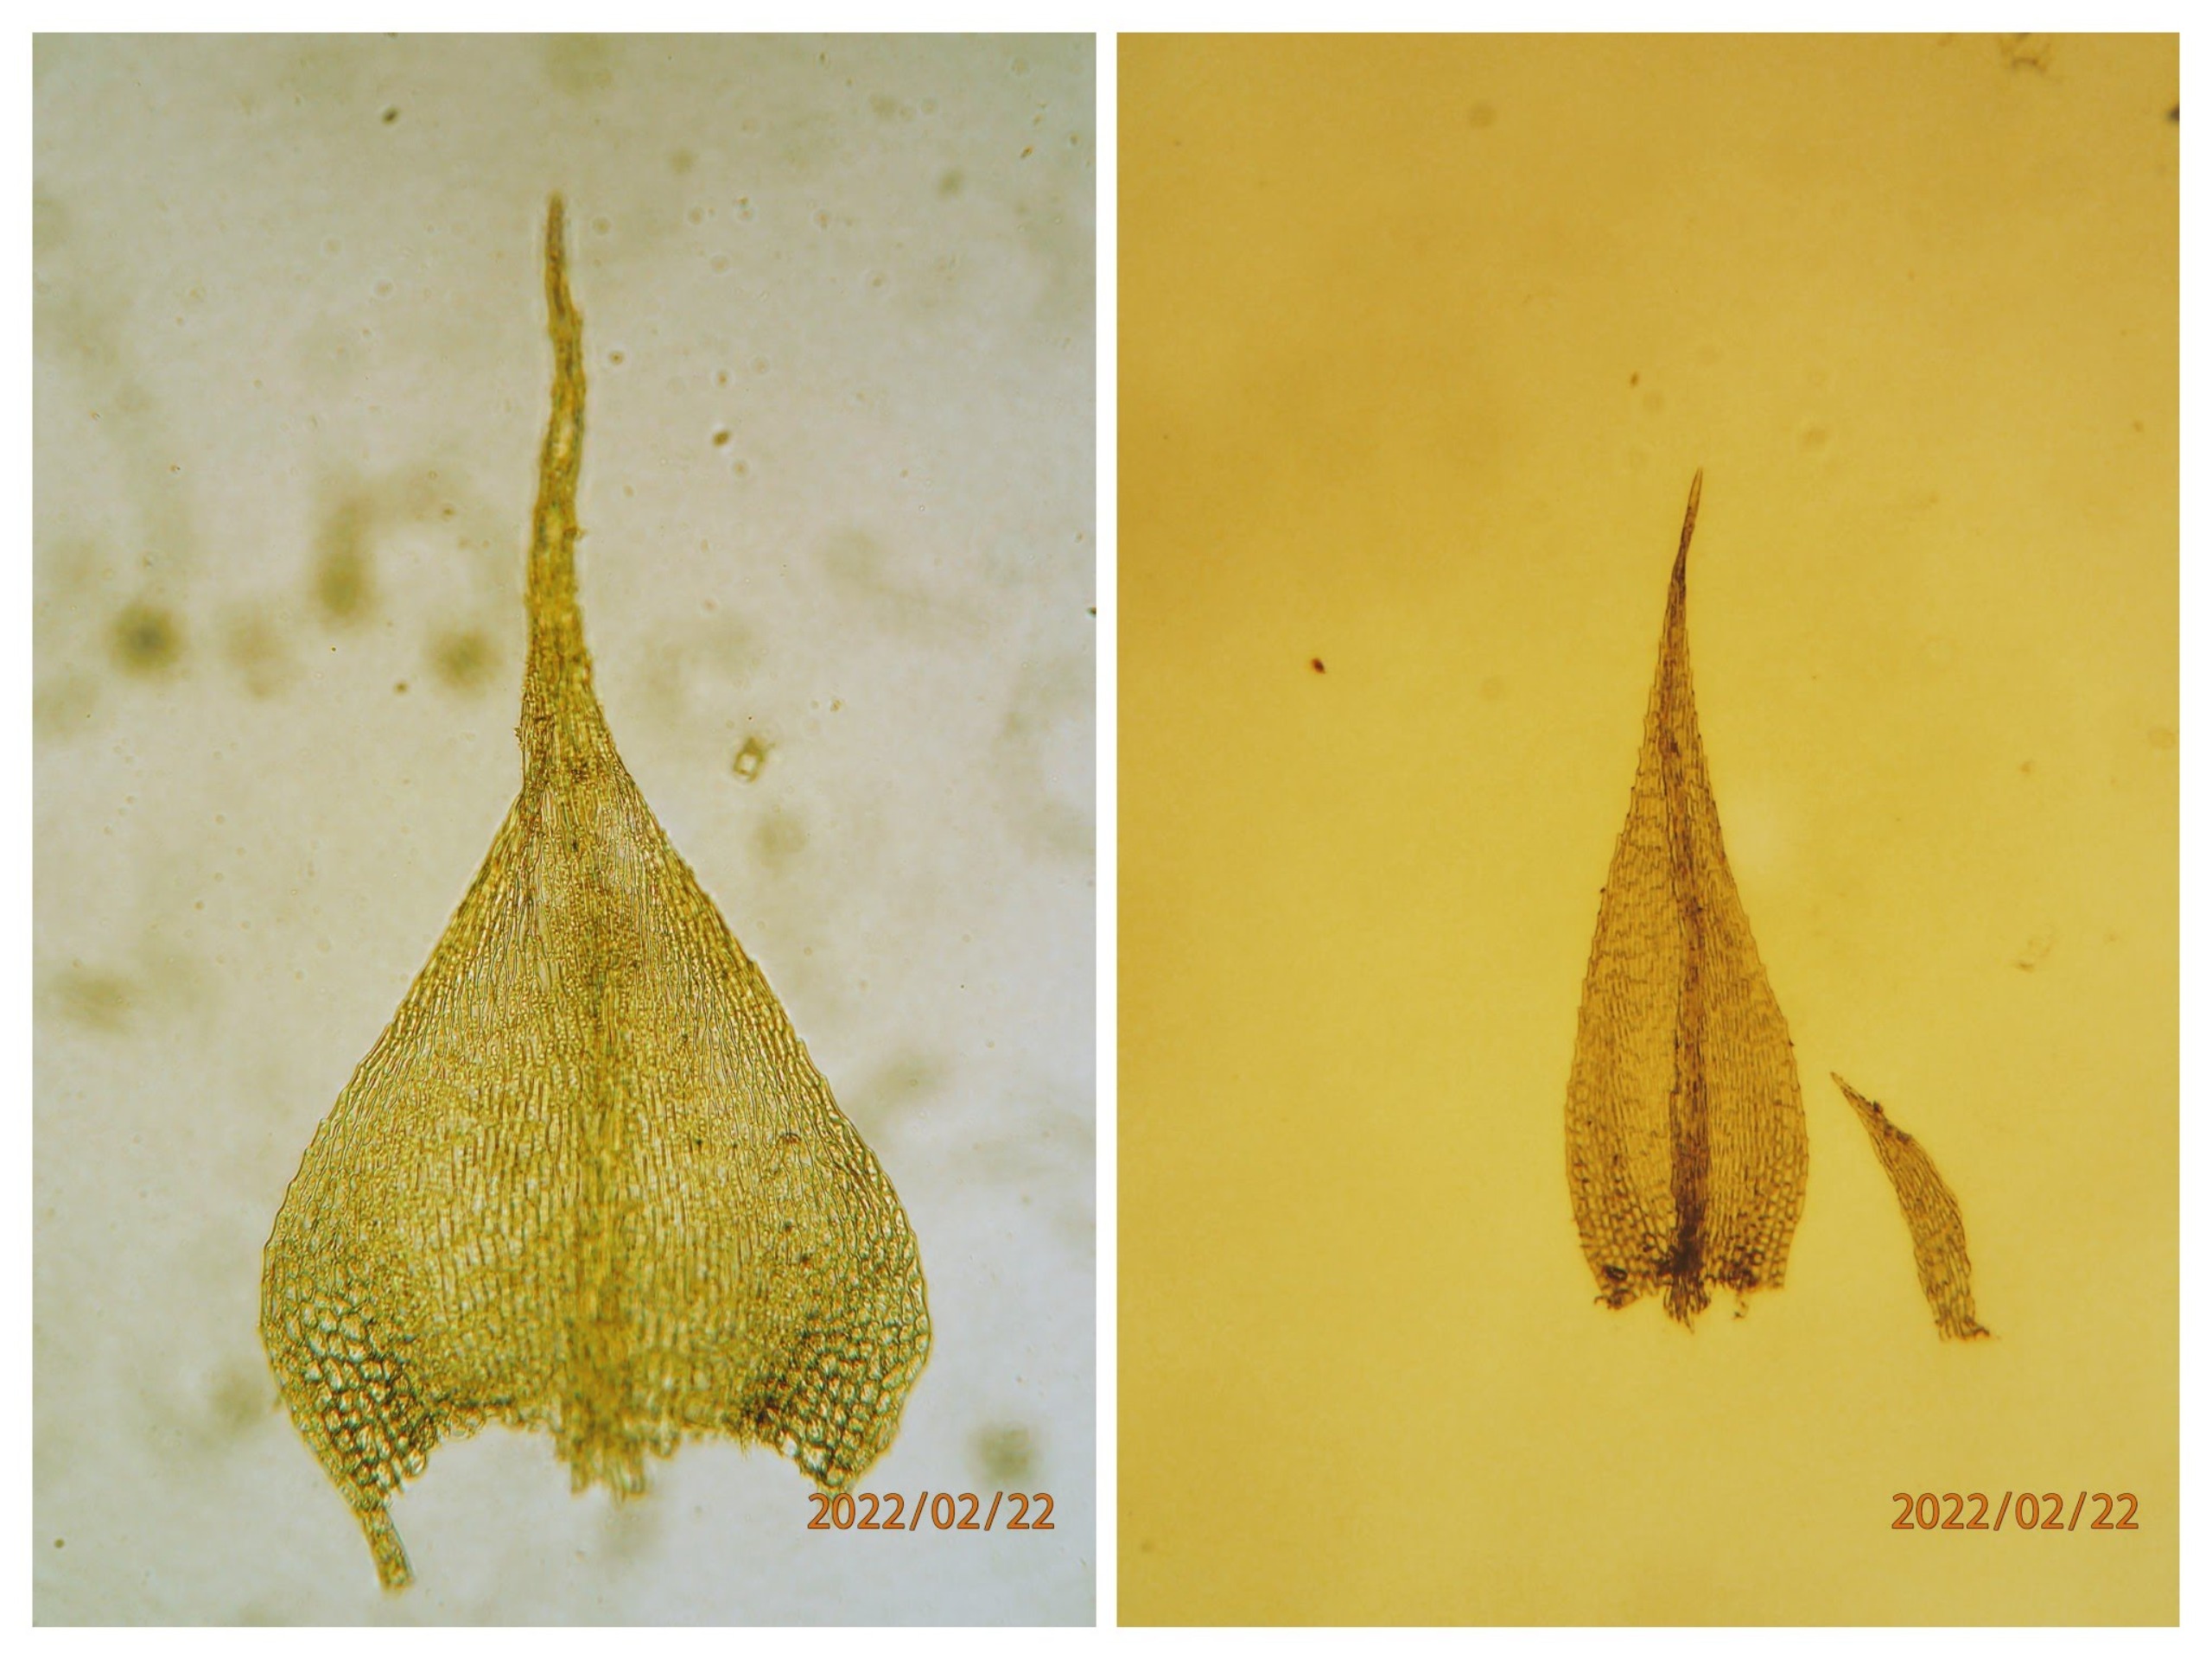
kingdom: Plantae
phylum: Bryophyta
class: Bryopsida
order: Hypnales
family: Brachytheciaceae
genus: Sciuro-hypnum
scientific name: Sciuro-hypnum reflexum
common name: Elle-kortkapsel
